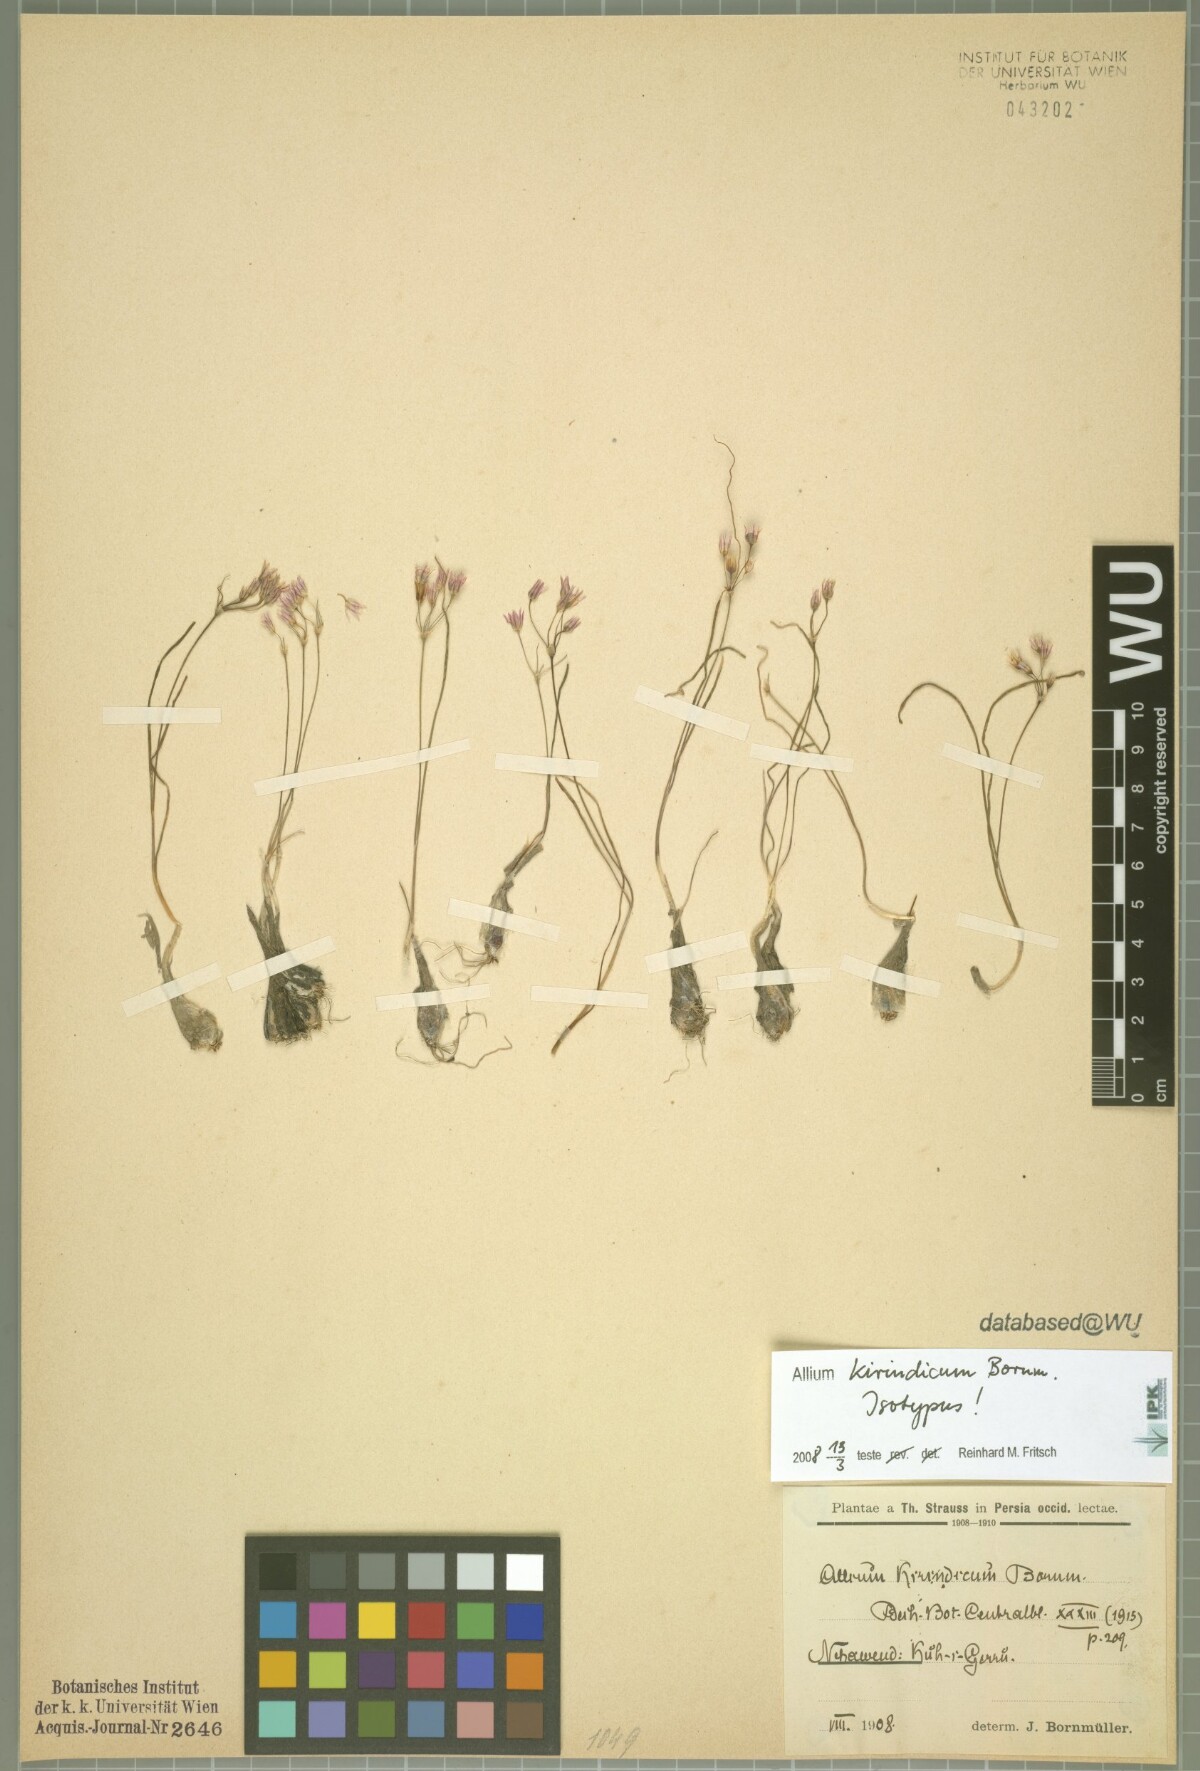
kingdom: Plantae
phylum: Tracheophyta
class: Liliopsida
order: Asparagales
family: Amaryllidaceae
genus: Allium
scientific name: Allium kirindicum
